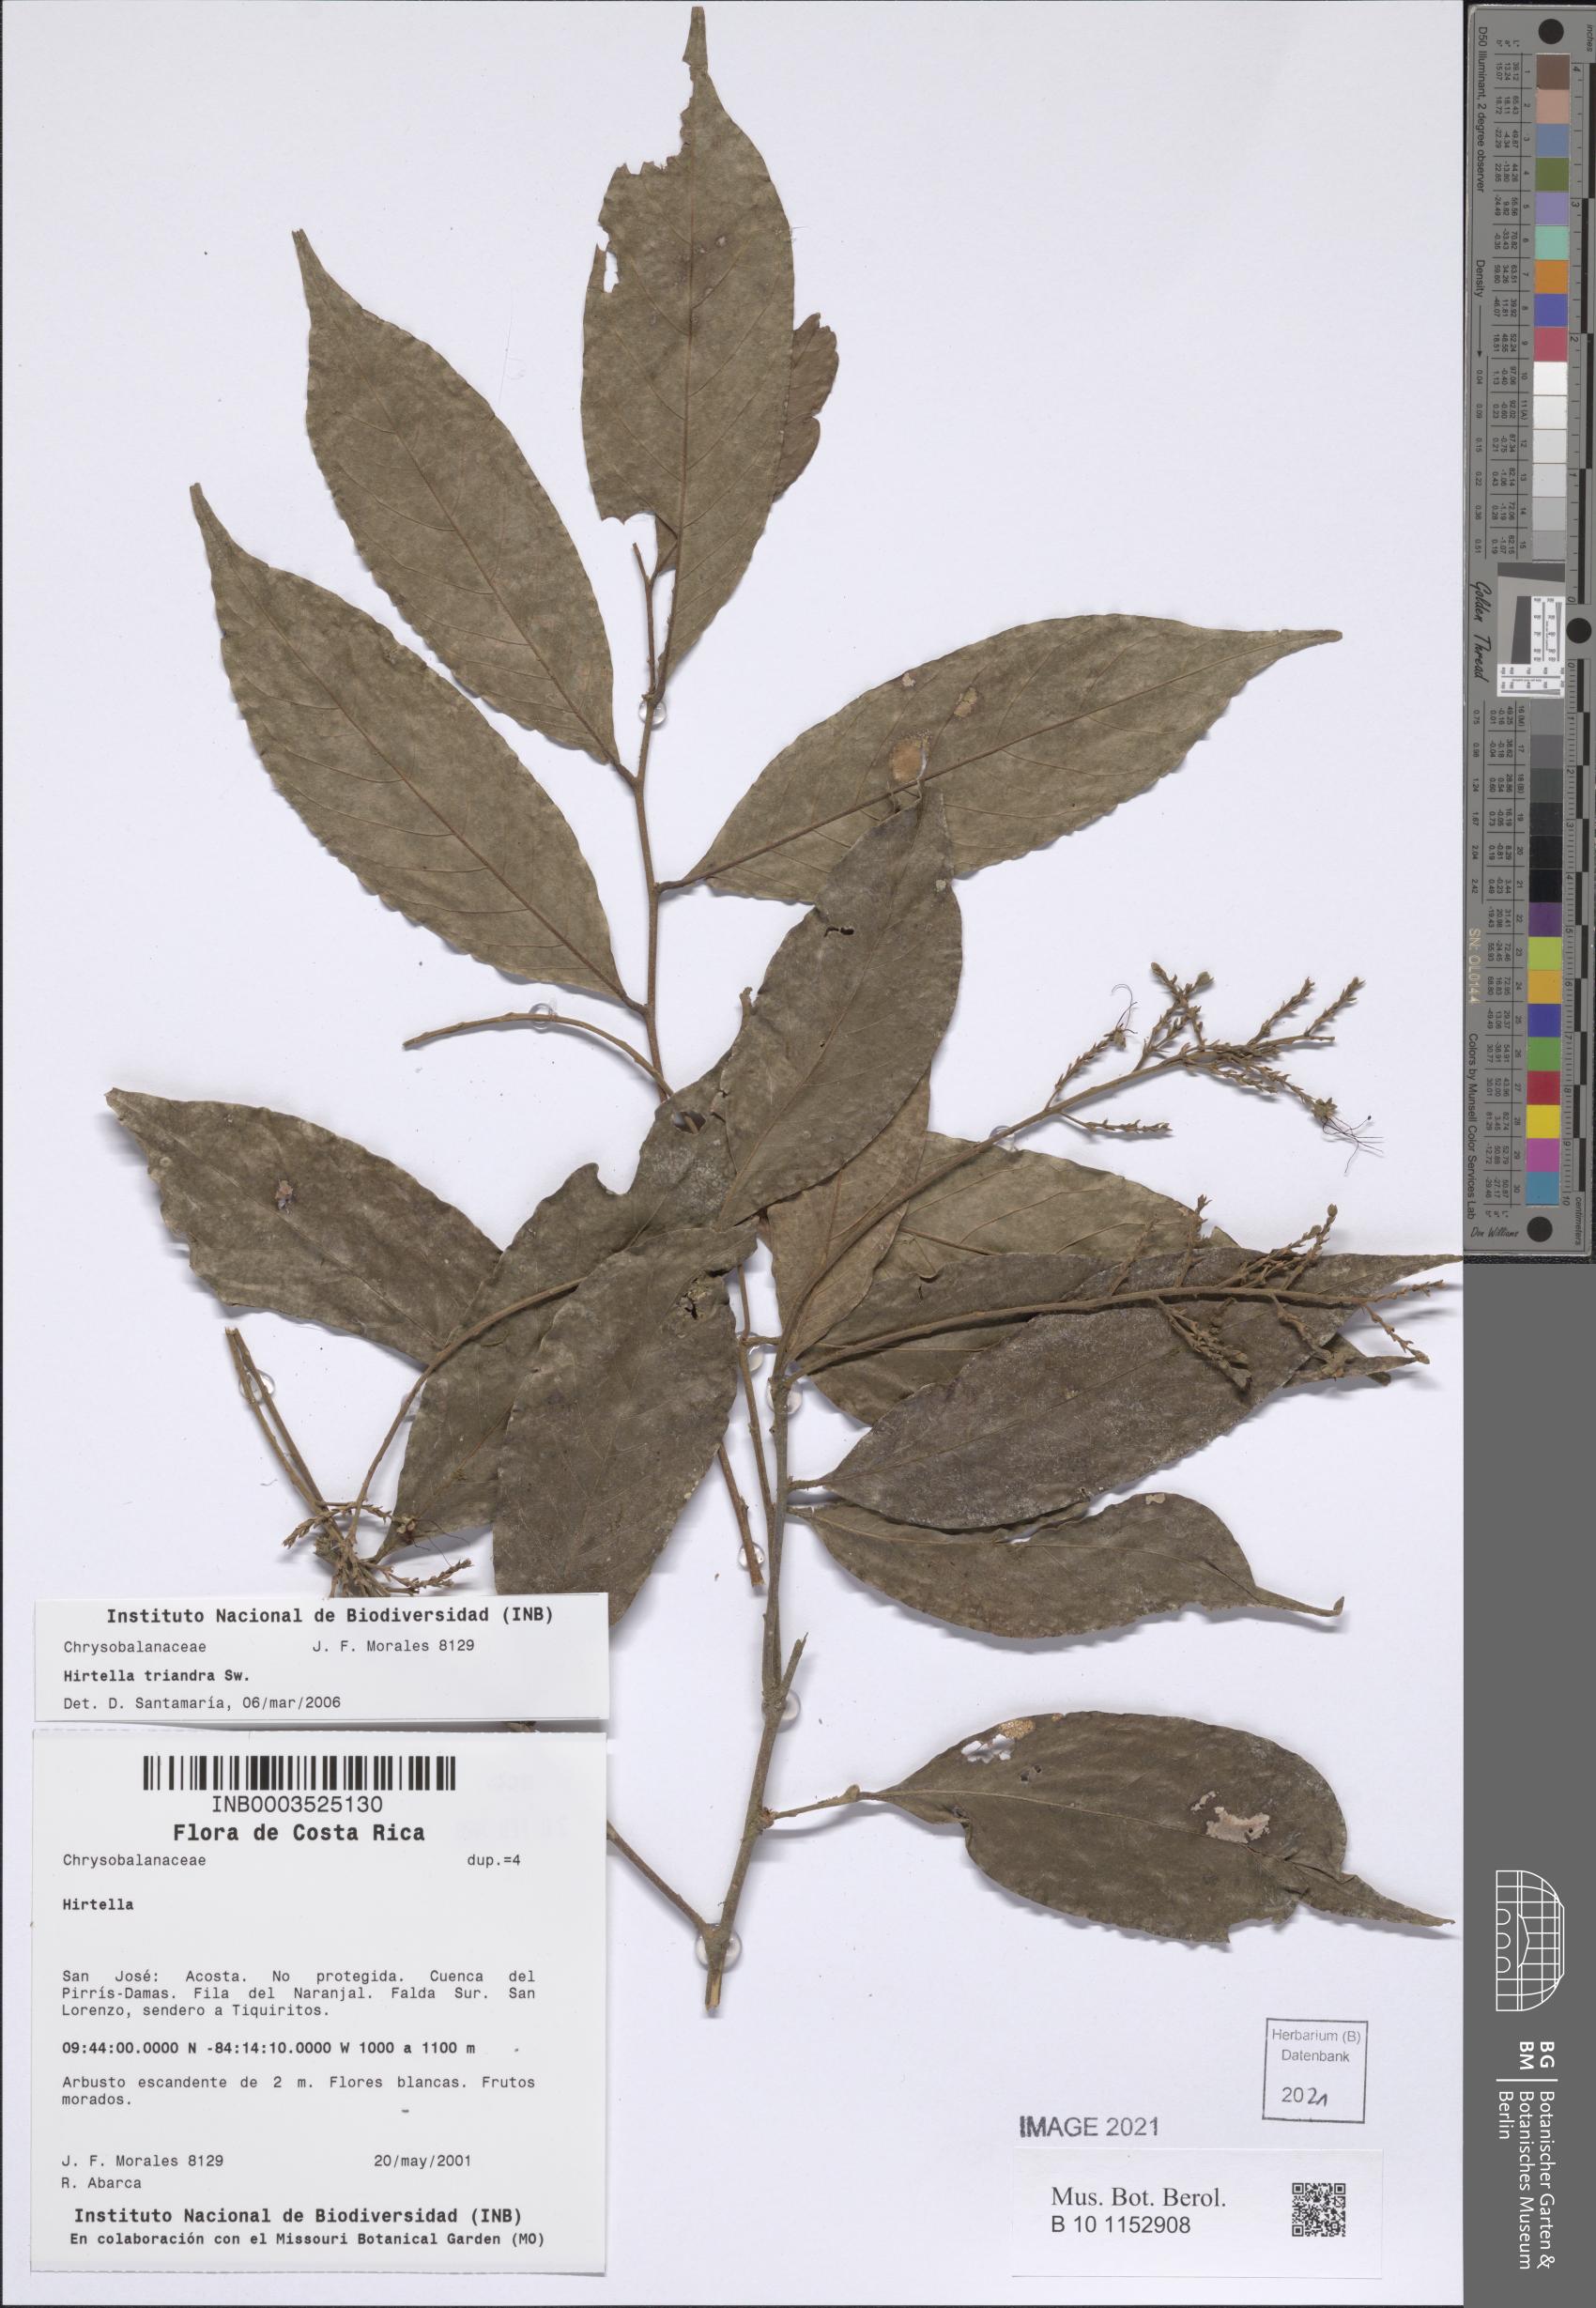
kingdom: Plantae
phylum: Tracheophyta
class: Magnoliopsida
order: Malpighiales
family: Chrysobalanaceae
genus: Hirtella
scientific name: Hirtella triandra
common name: Hairy plum
